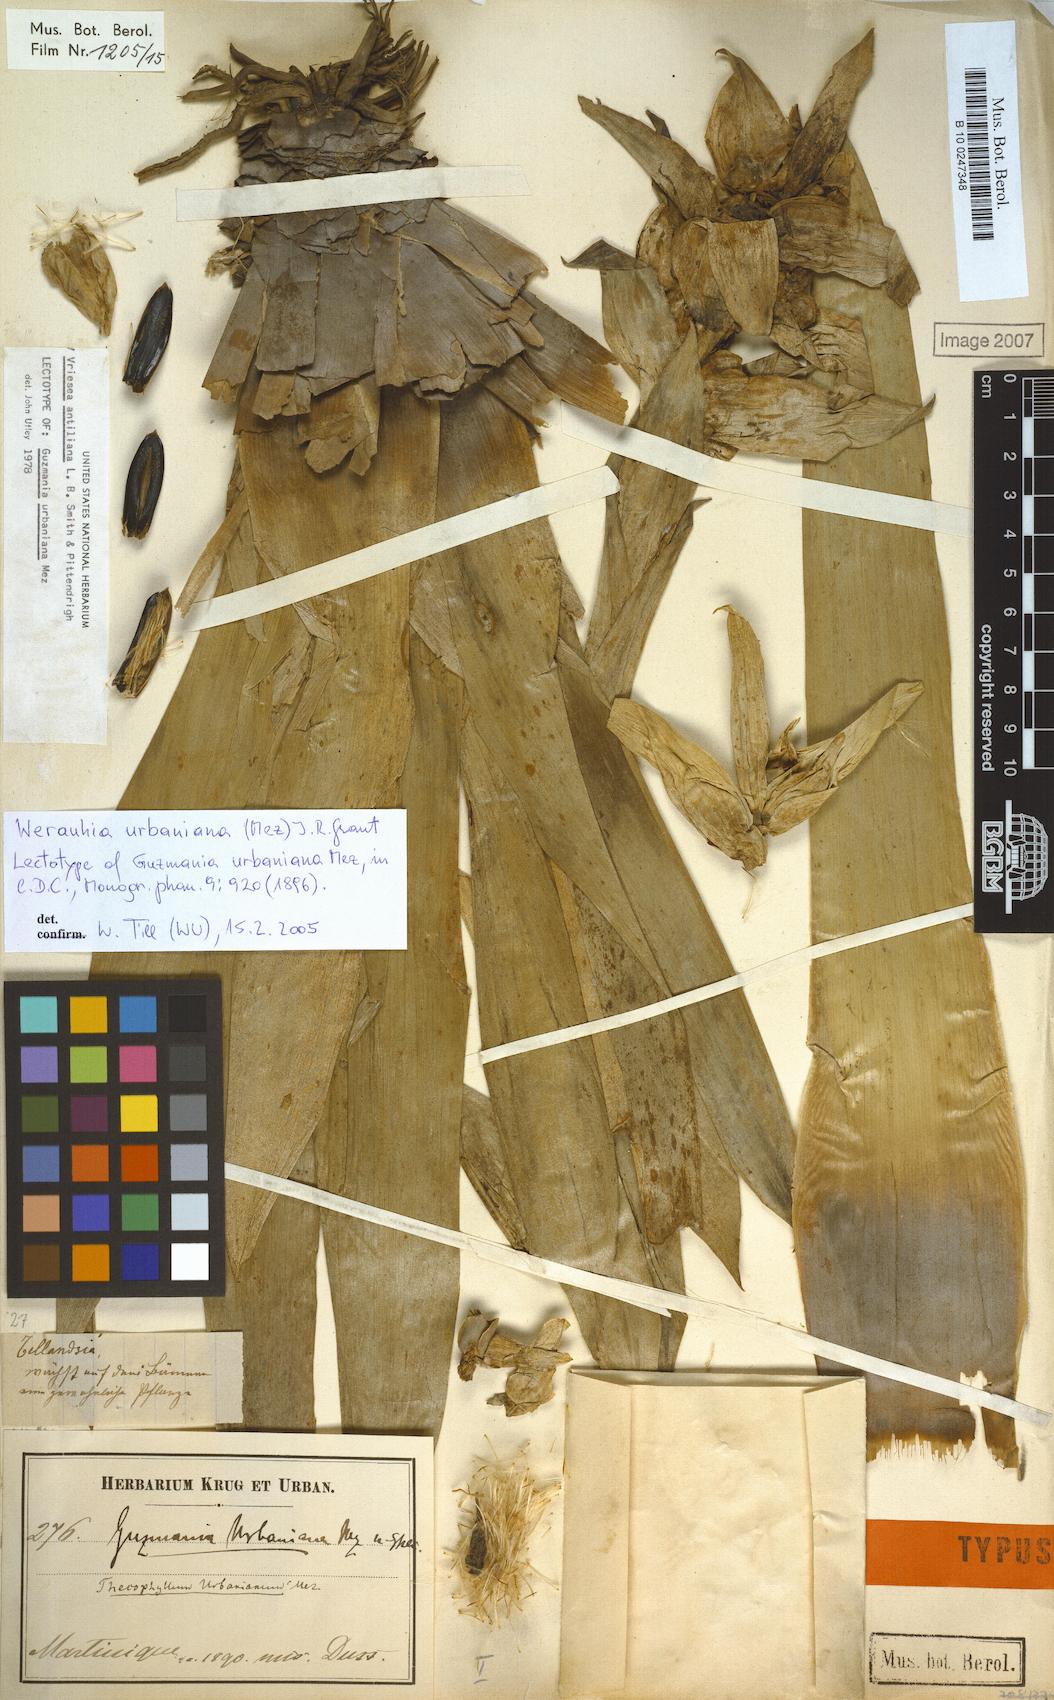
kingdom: Plantae
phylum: Tracheophyta
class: Liliopsida
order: Poales
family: Bromeliaceae
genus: Werauhia
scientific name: Werauhia urbaniana
